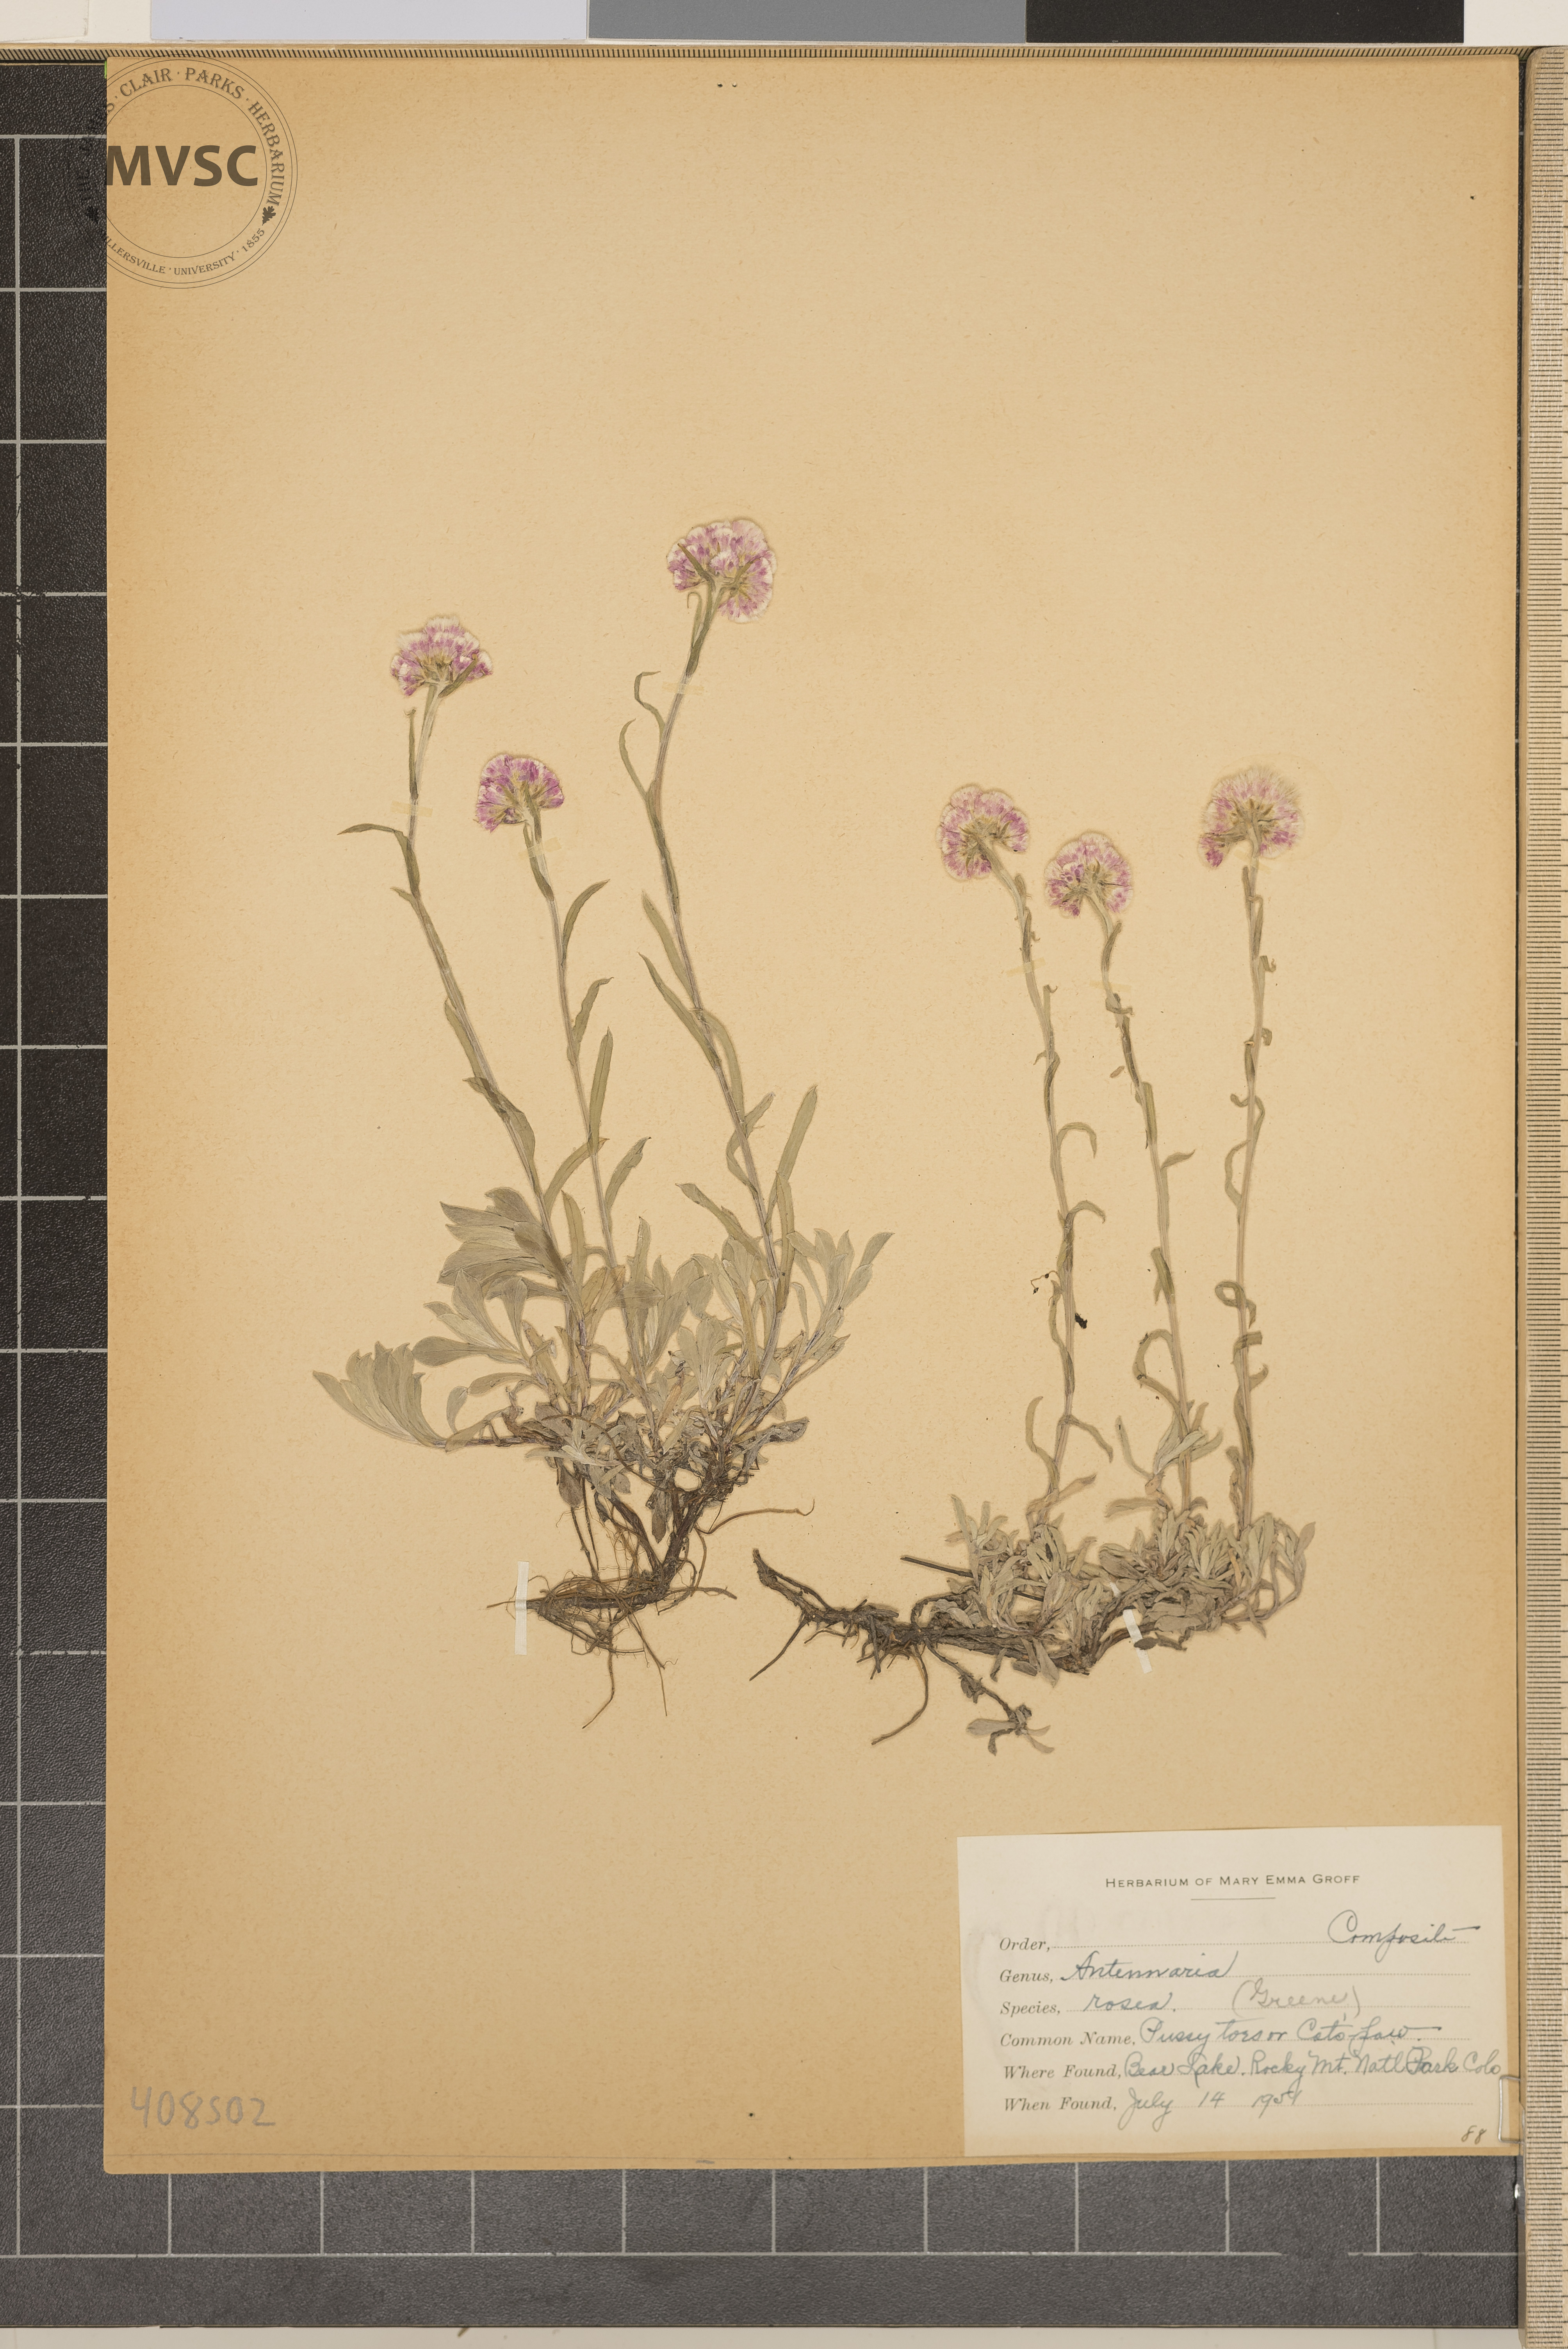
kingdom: Plantae
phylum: Tracheophyta
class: Magnoliopsida
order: Asterales
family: Asteraceae
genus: Antennaria
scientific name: Antennaria rosea
